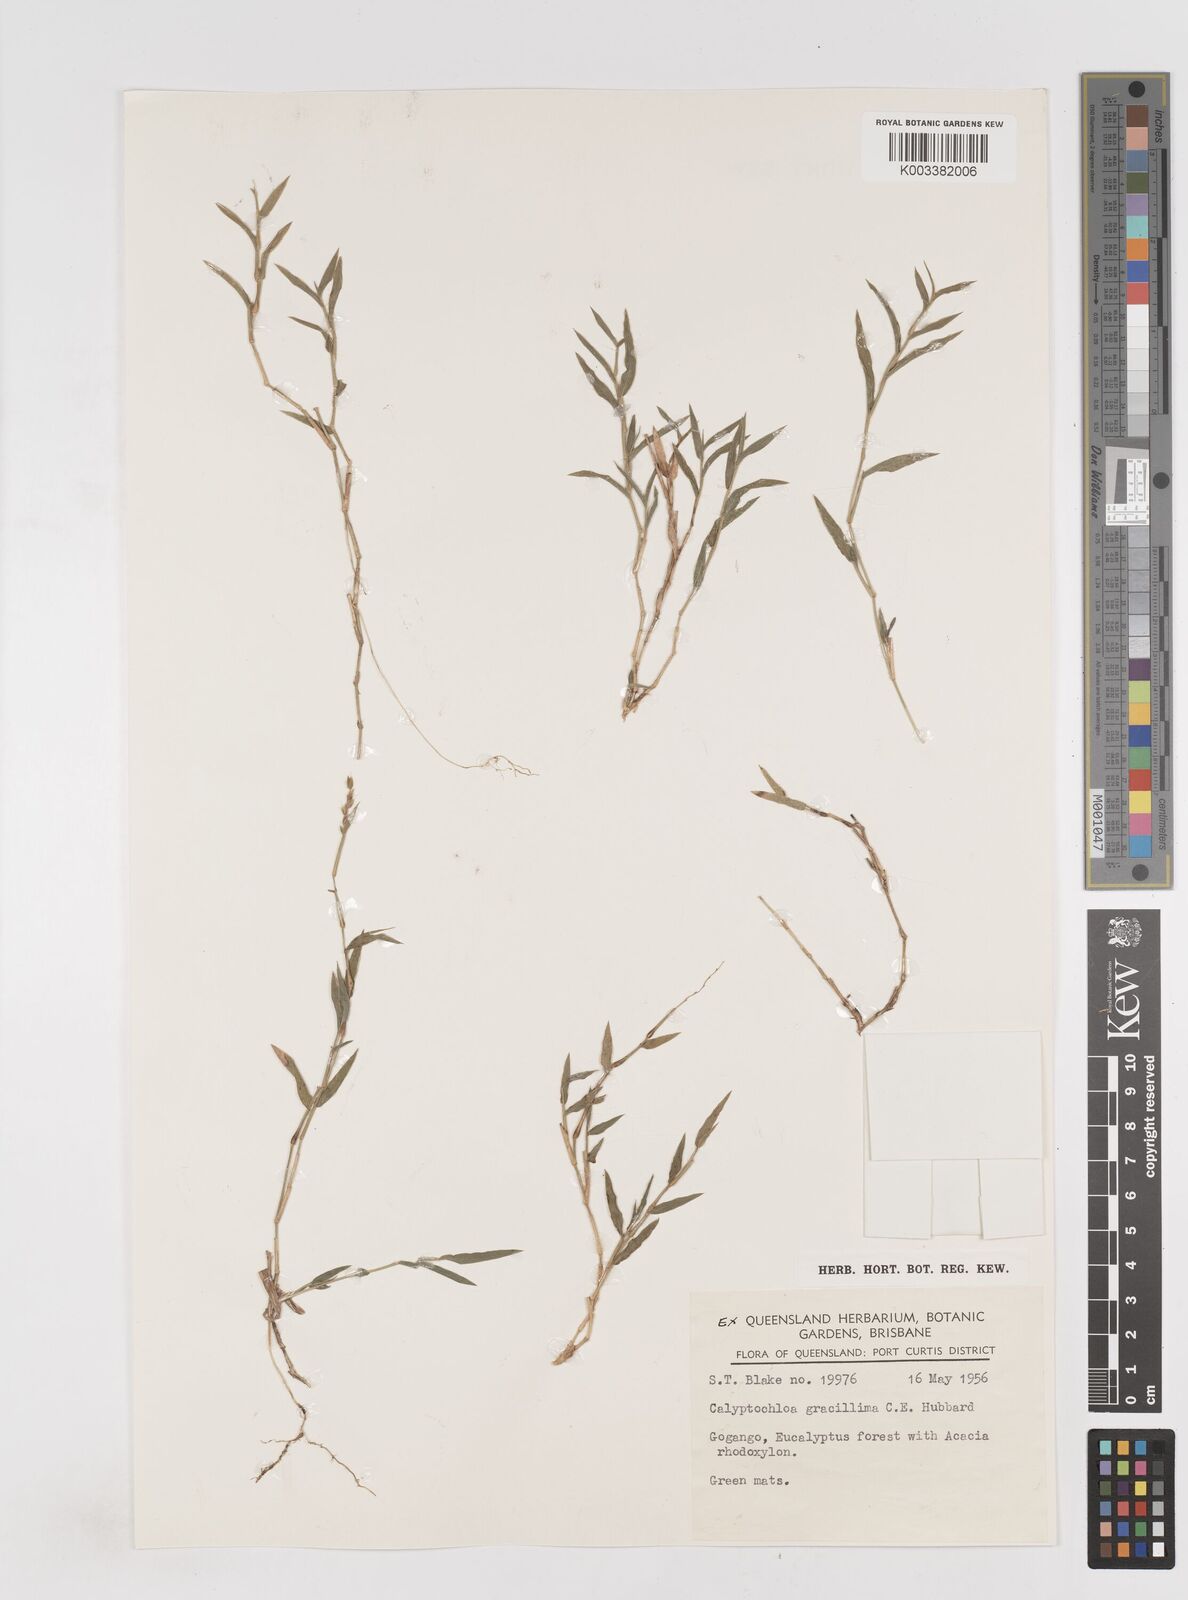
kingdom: Plantae
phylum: Tracheophyta
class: Liliopsida
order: Poales
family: Poaceae
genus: Calyptochloa
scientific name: Calyptochloa gracillima
